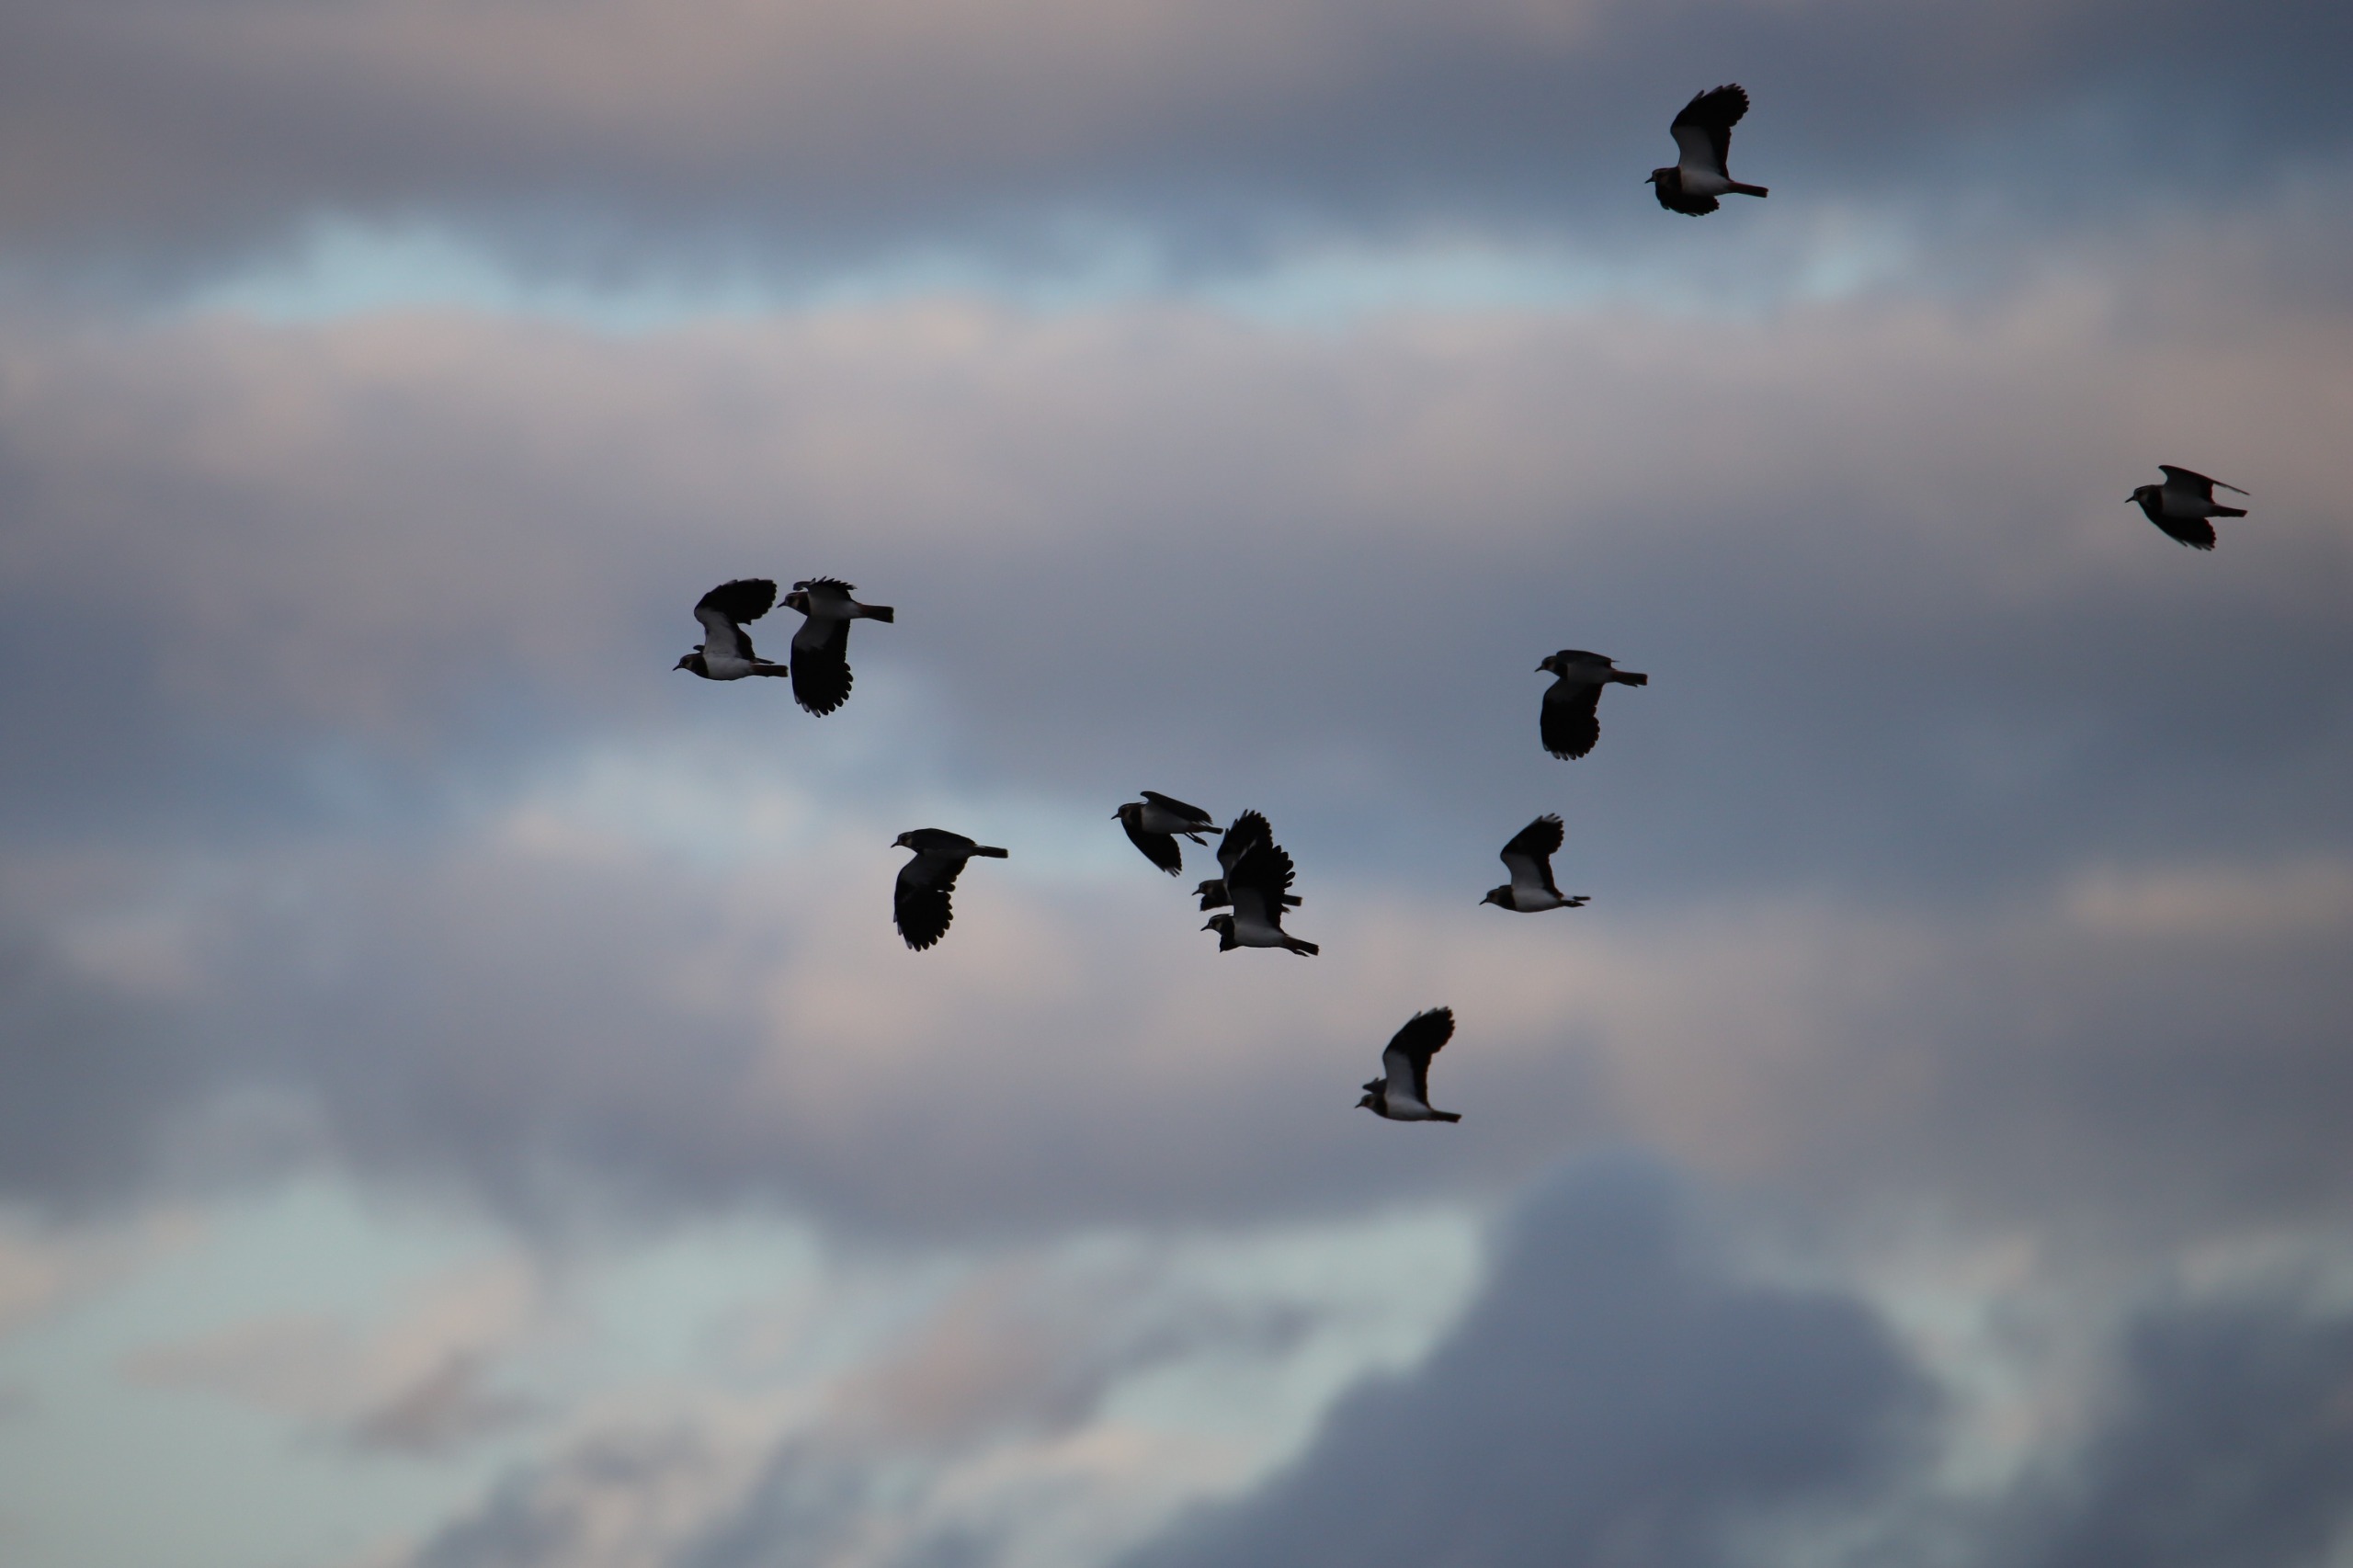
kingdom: Animalia
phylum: Chordata
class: Aves
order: Charadriiformes
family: Charadriidae
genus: Vanellus
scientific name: Vanellus vanellus
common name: Vibe
